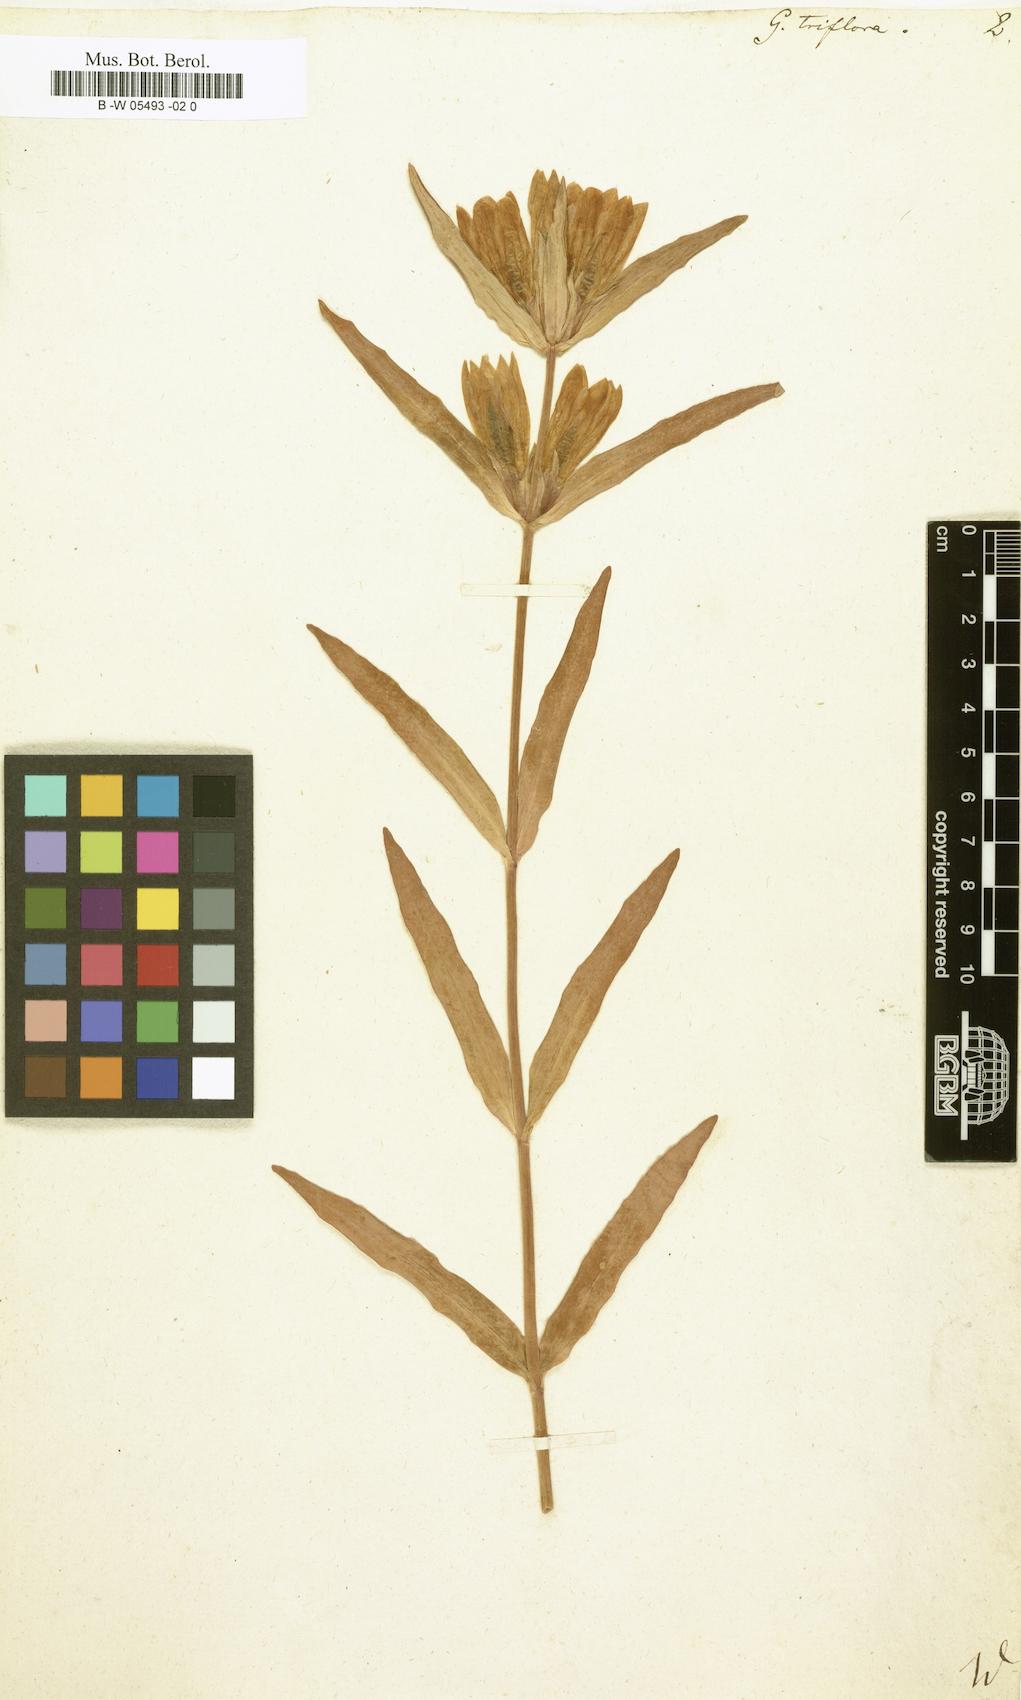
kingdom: Plantae
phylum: Tracheophyta
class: Magnoliopsida
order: Gentianales
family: Gentianaceae
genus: Gentiana
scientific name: Gentiana triflora
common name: Three-flower gentian
